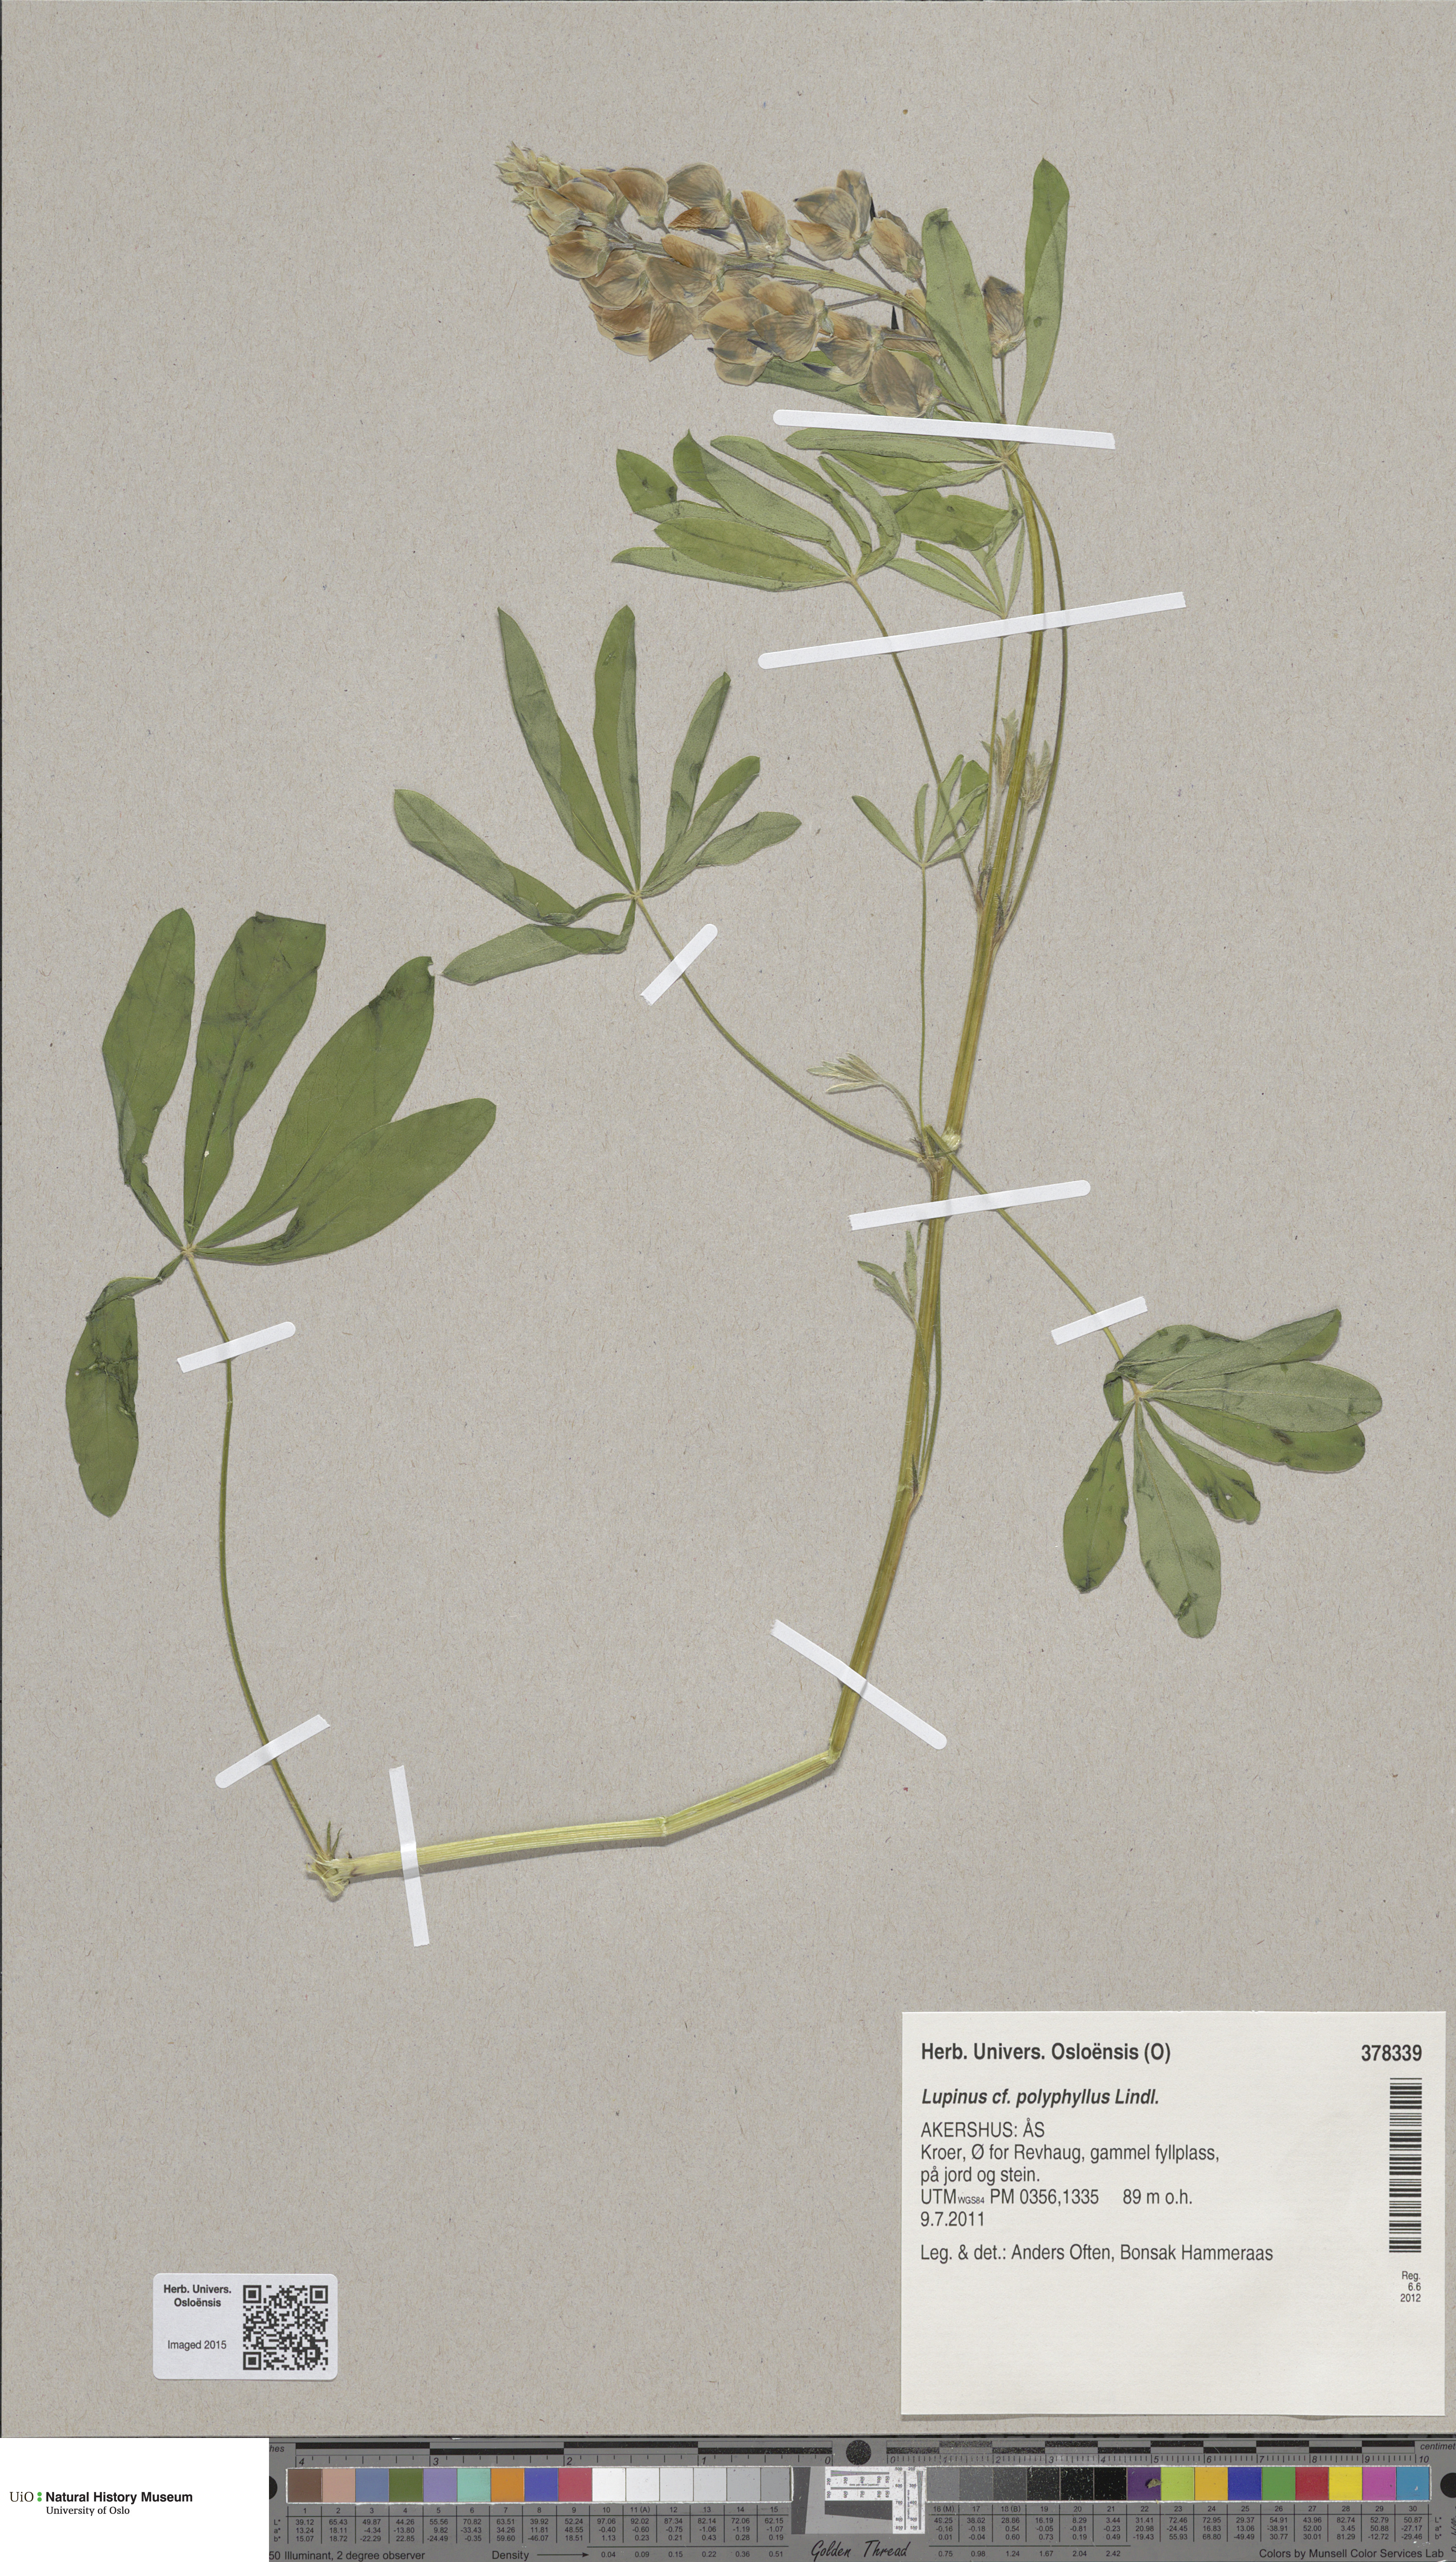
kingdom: Plantae
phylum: Tracheophyta
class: Magnoliopsida
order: Fabales
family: Fabaceae
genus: Lupinus
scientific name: Lupinus polyphyllus
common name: Garden lupin
